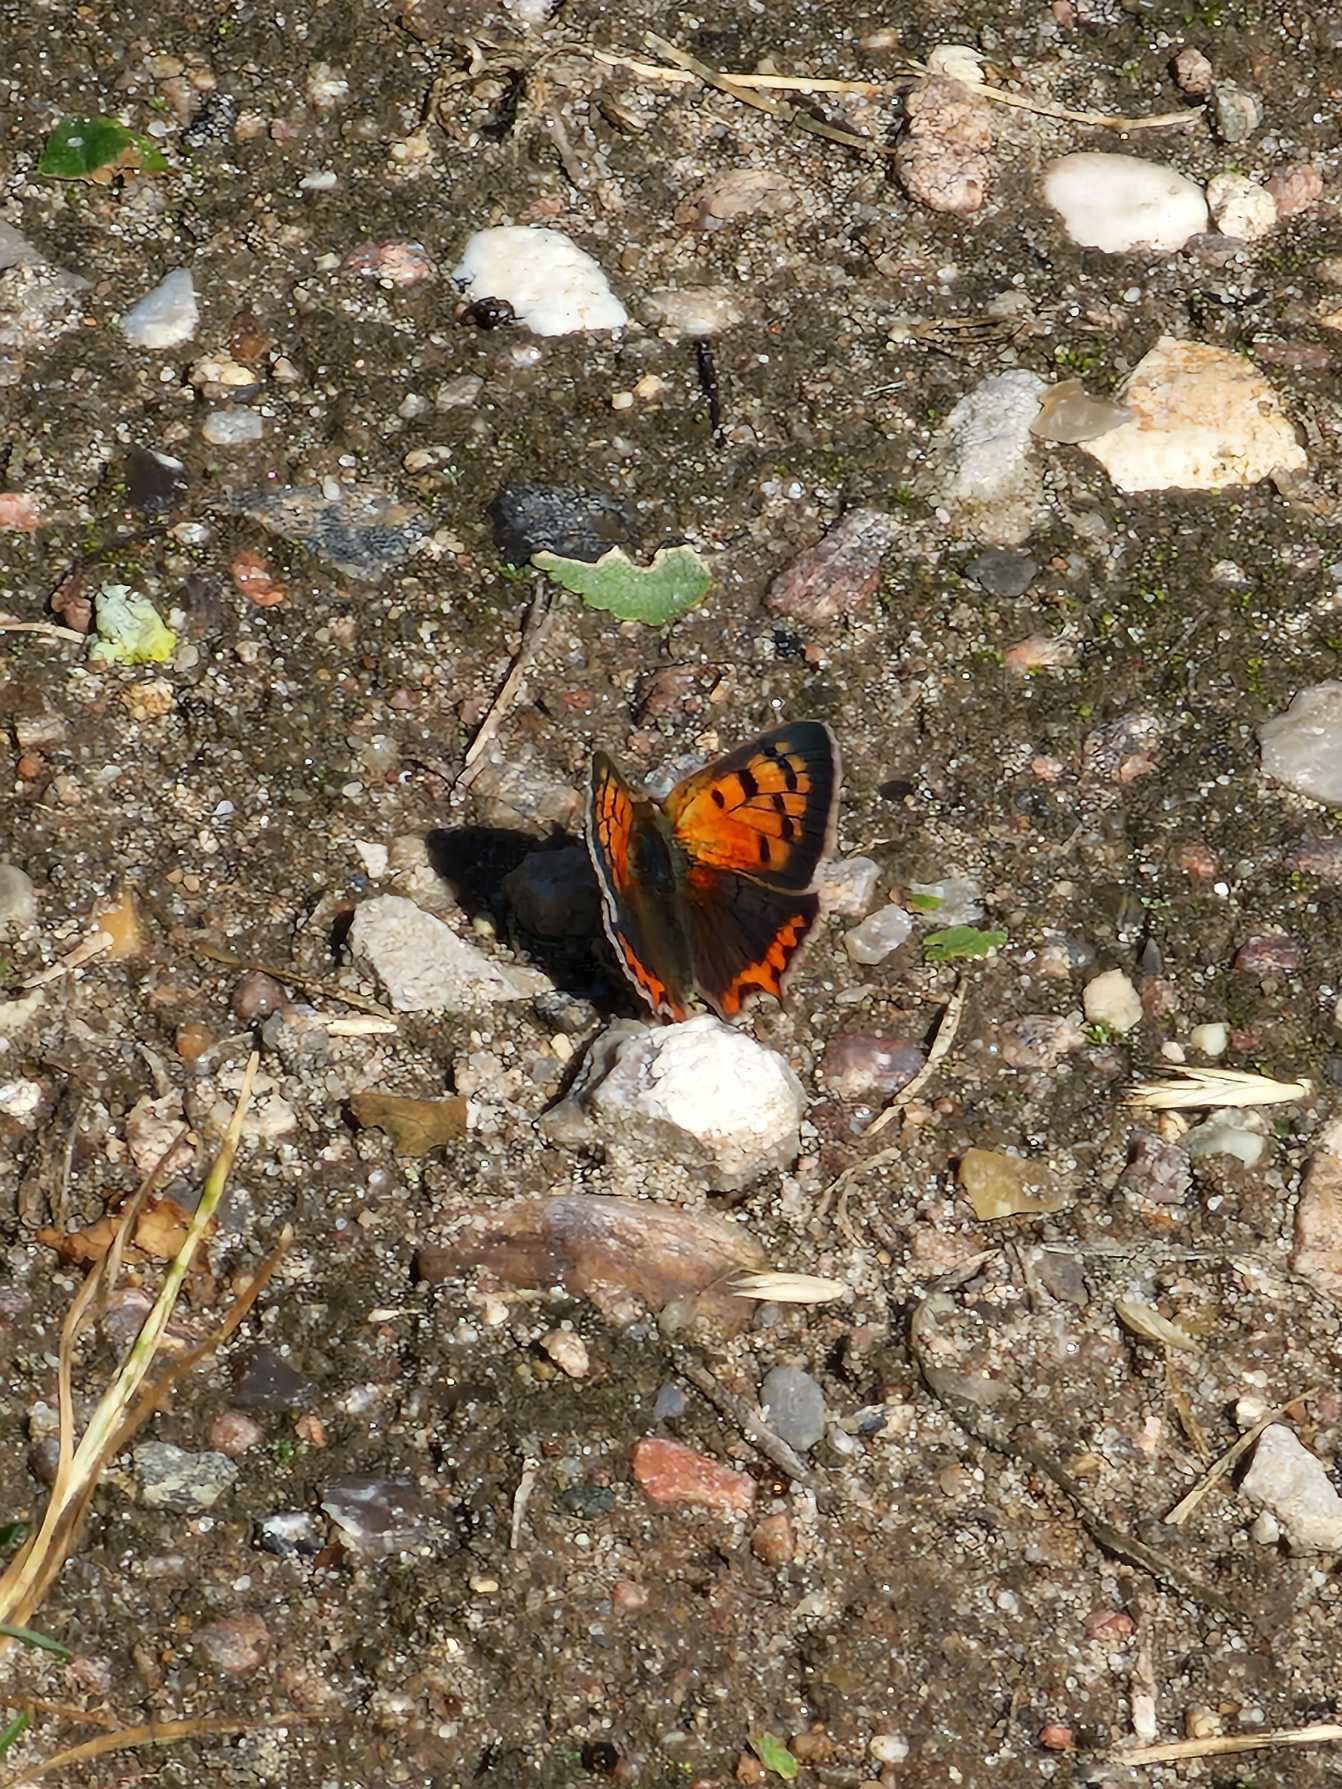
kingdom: Animalia
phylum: Arthropoda
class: Insecta
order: Lepidoptera
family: Lycaenidae
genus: Lycaena
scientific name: Lycaena phlaeas
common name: Lille ildfugl
